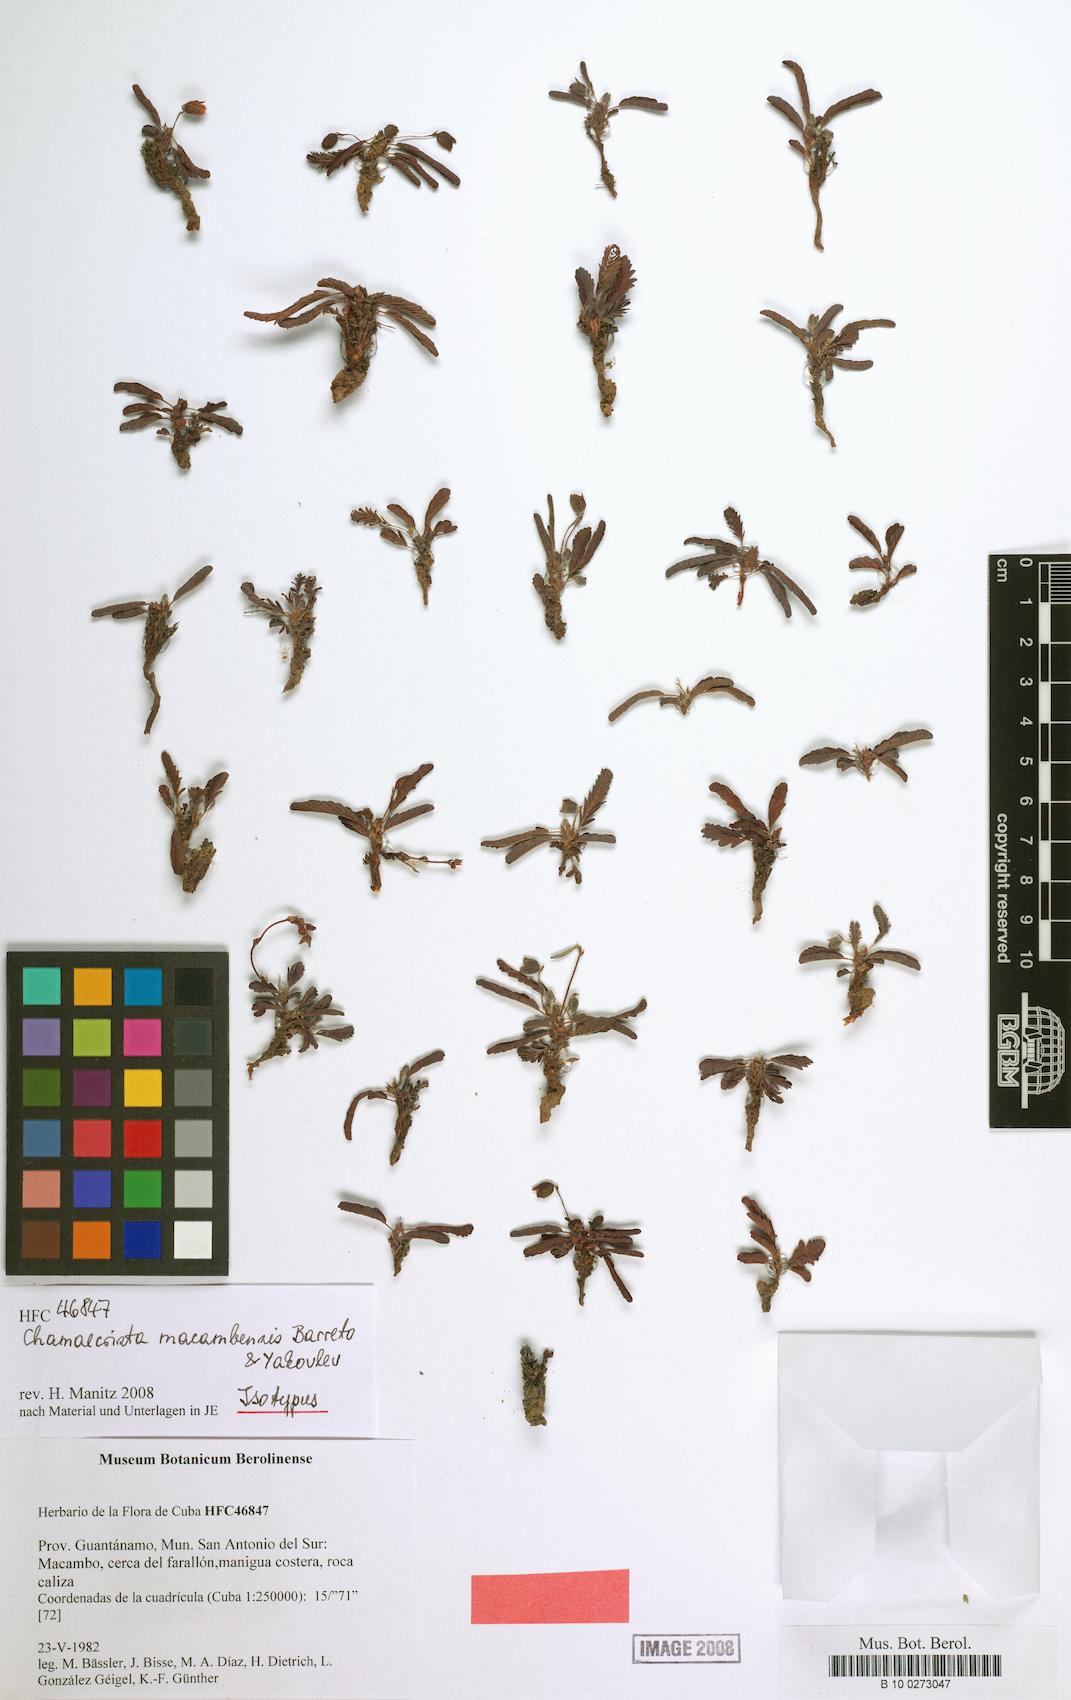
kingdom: Plantae
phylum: Tracheophyta
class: Magnoliopsida
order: Fabales
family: Fabaceae
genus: Chamaecrista
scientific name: Chamaecrista macambensis
